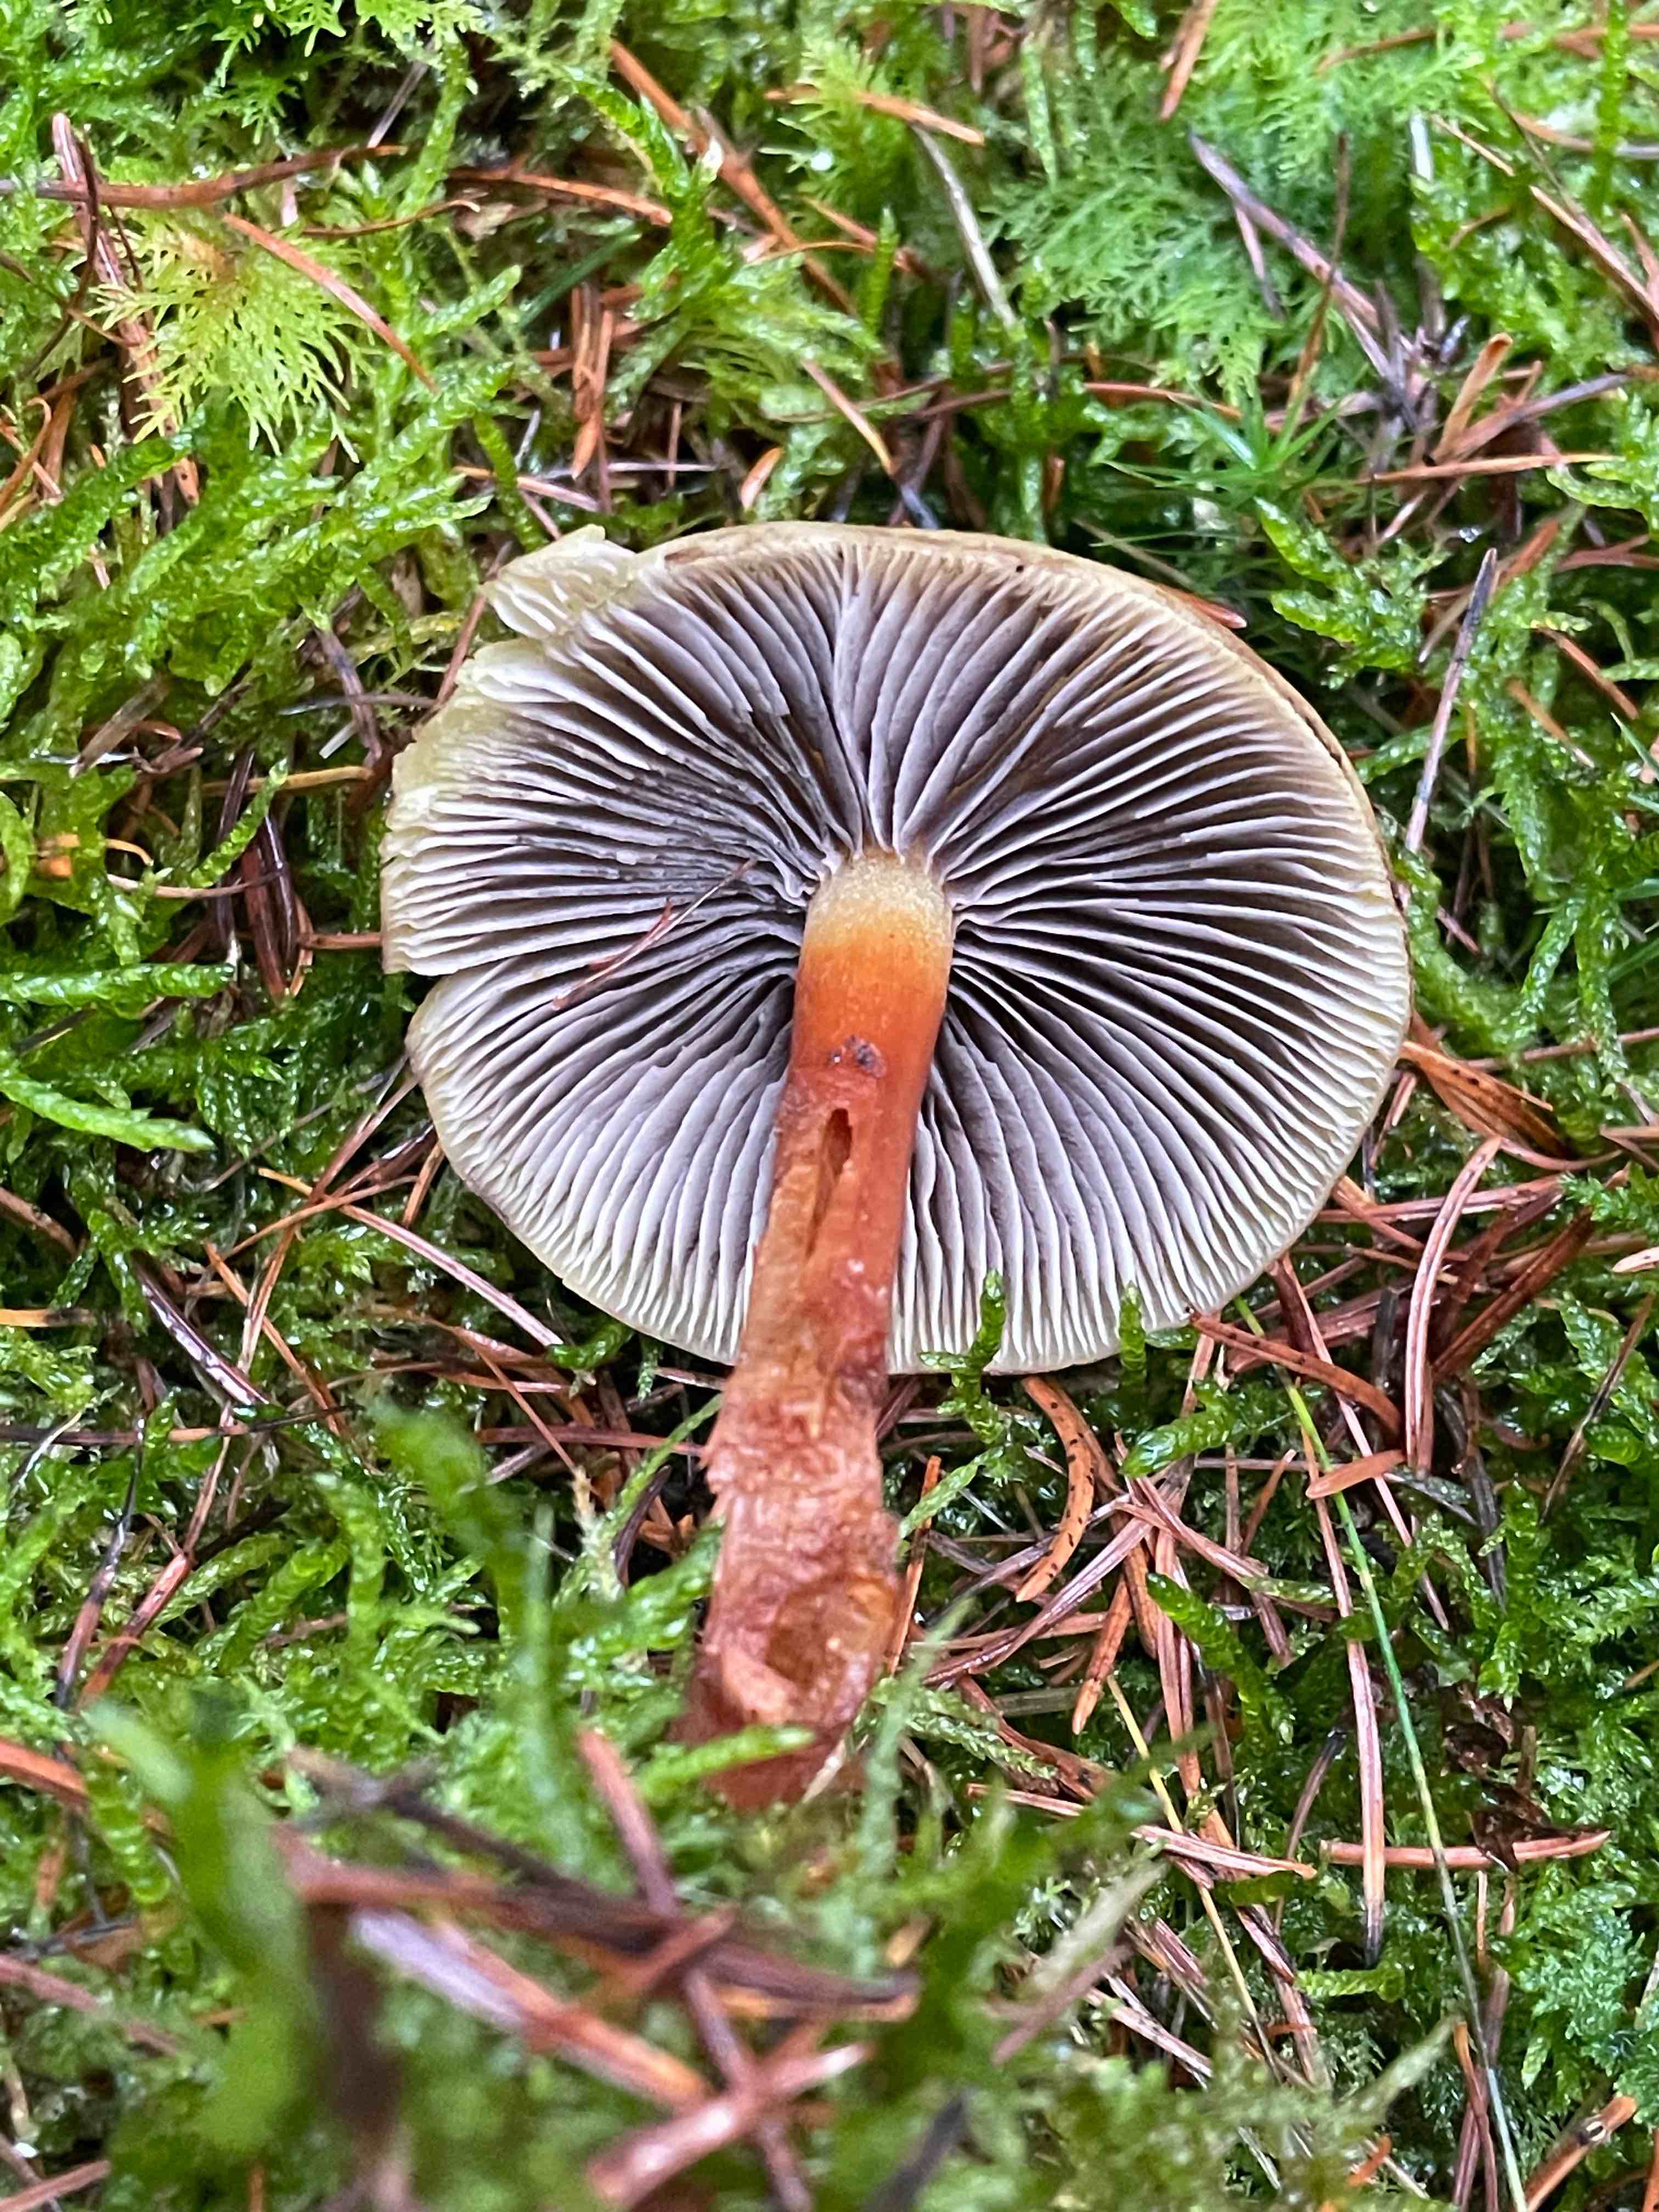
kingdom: Fungi
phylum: Basidiomycota
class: Agaricomycetes
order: Agaricales
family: Strophariaceae
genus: Hypholoma
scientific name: Hypholoma capnoides
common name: gran-svovlhat
